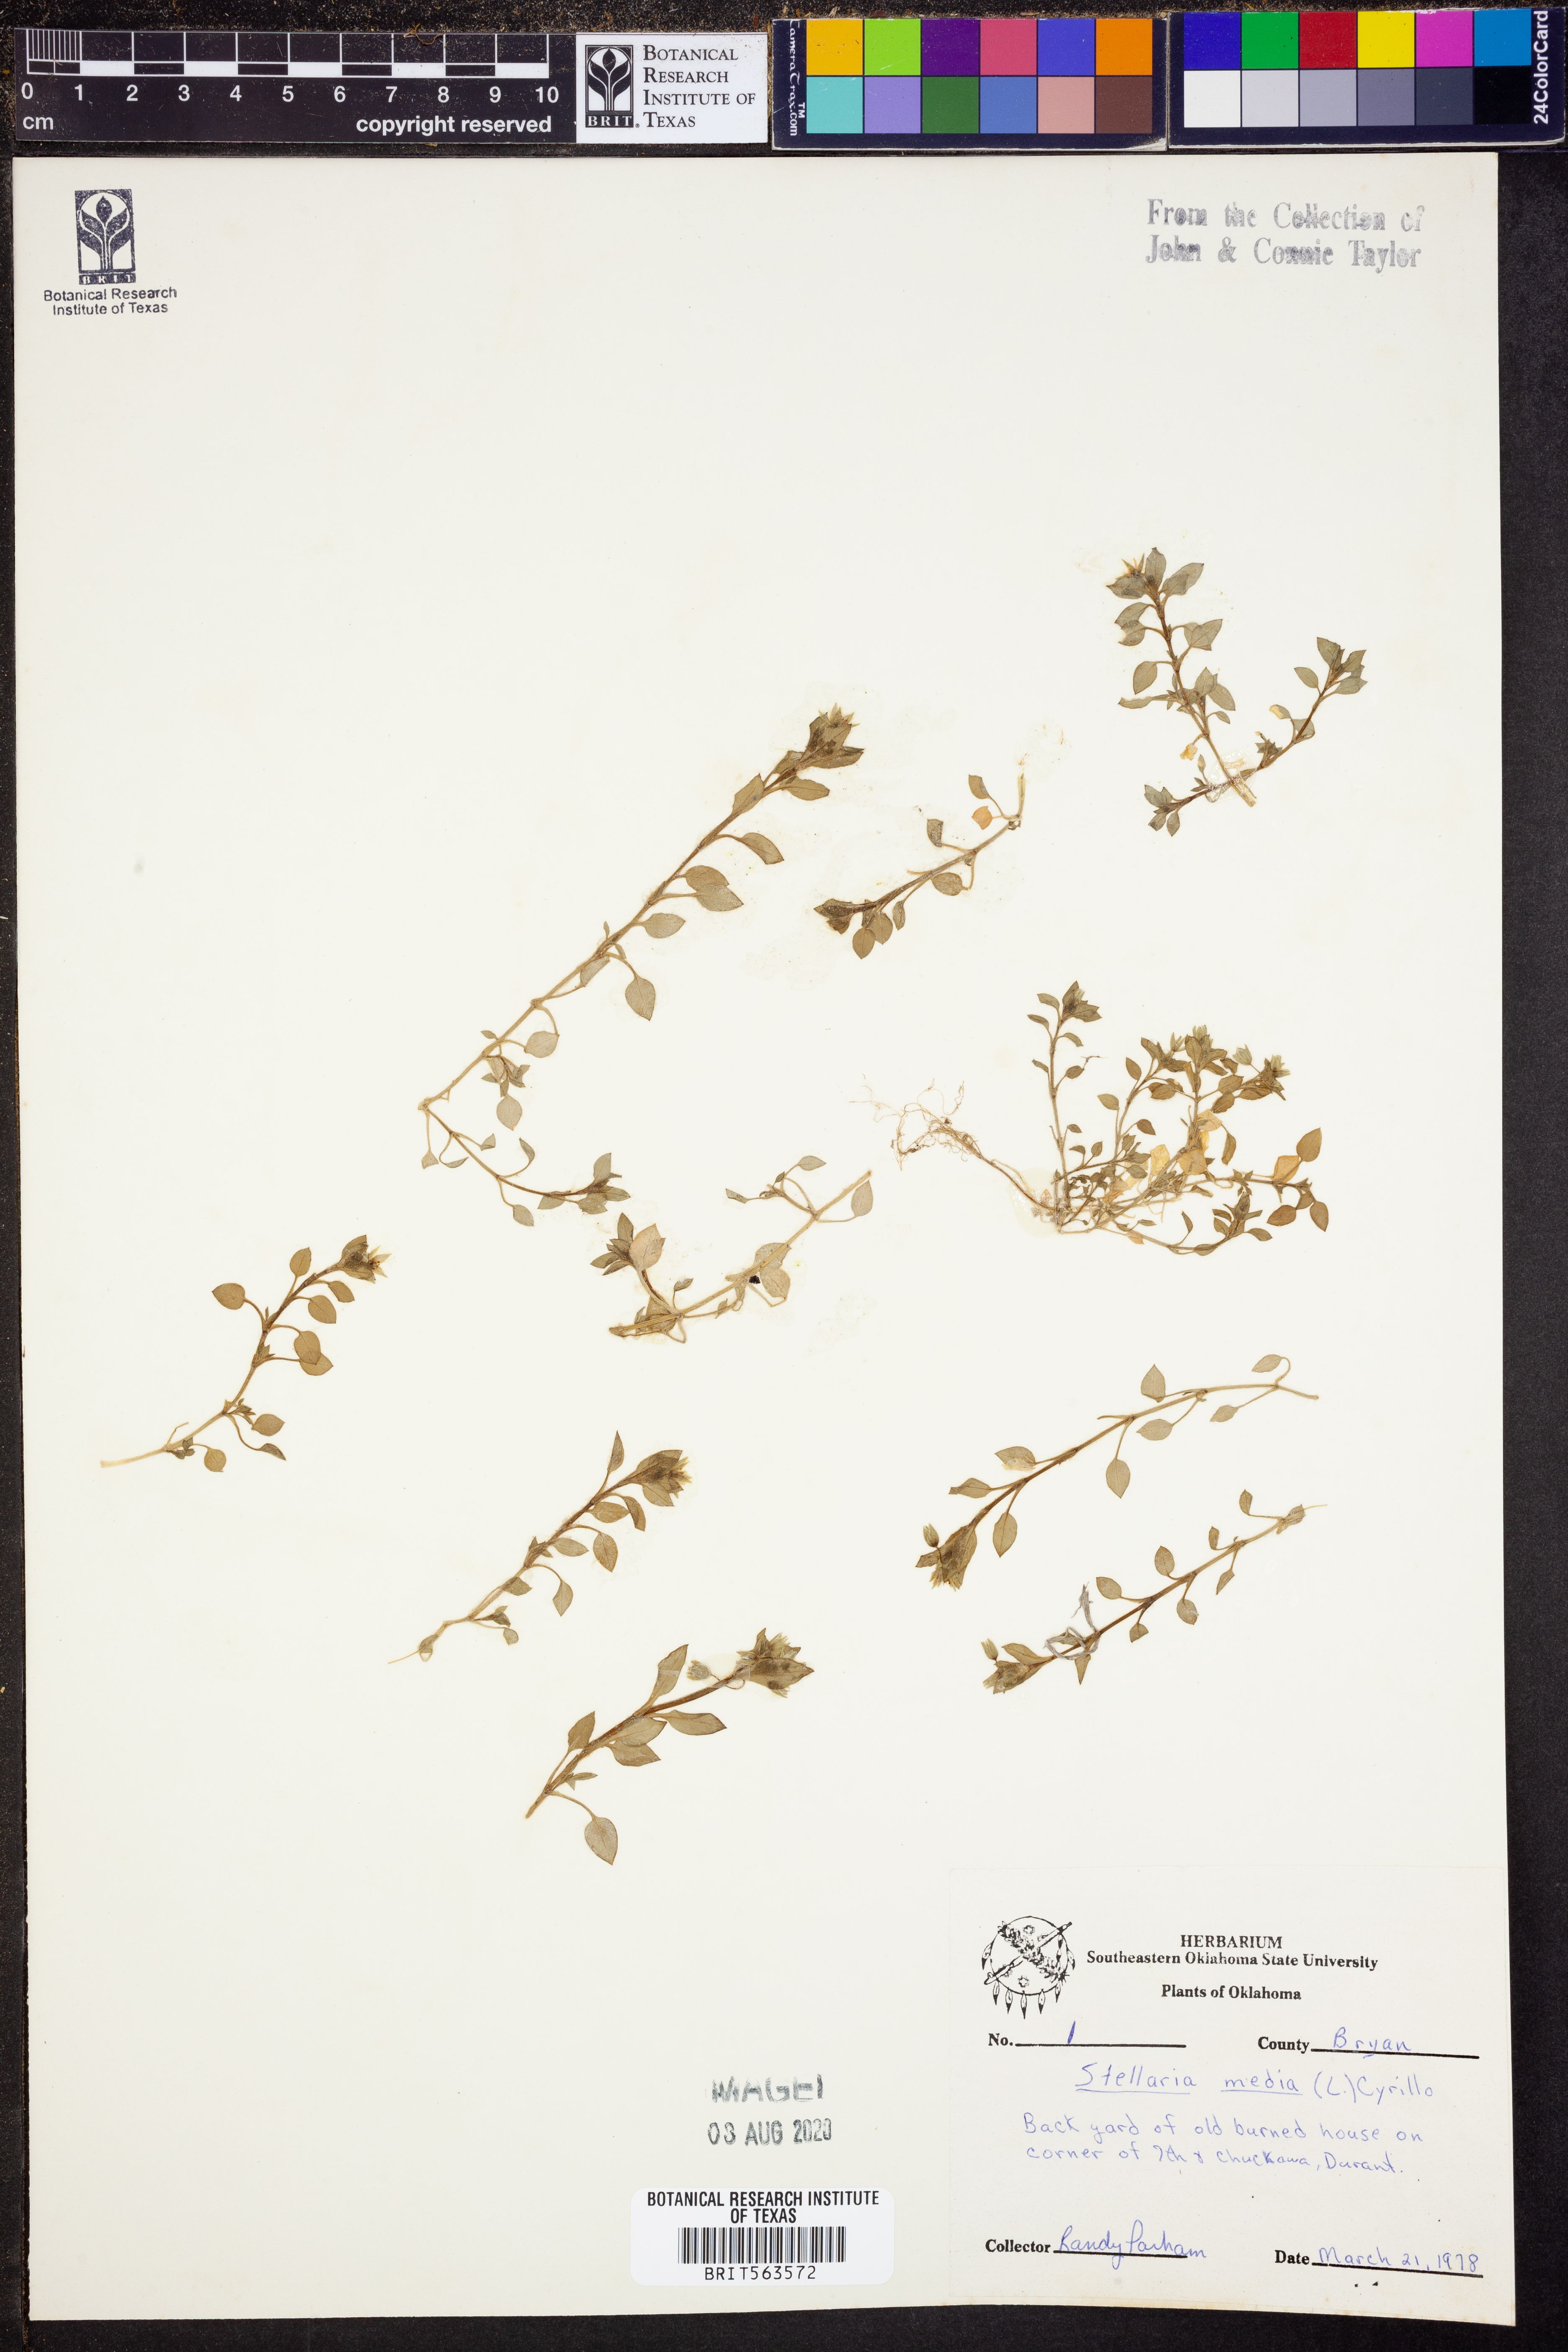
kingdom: Plantae
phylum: Tracheophyta
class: Magnoliopsida
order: Caryophyllales
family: Caryophyllaceae
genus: Stellaria
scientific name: Stellaria media
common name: Common chickweed
